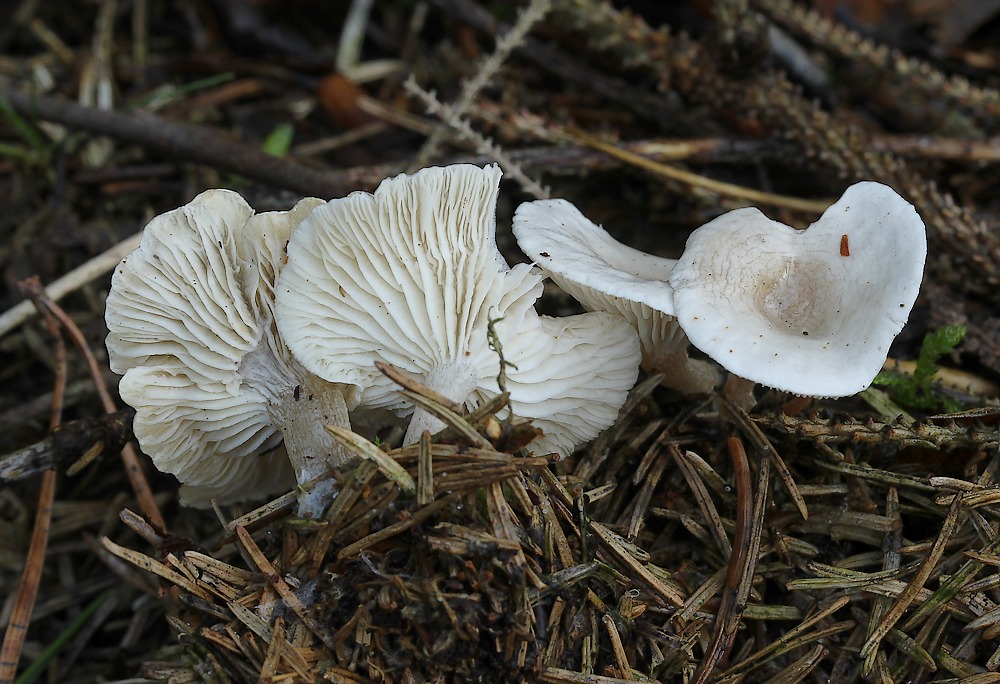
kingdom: Fungi
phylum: Basidiomycota
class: Agaricomycetes
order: Agaricales
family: Tricholomataceae
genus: Leucocybe
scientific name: Leucocybe candicans
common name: kridt-tragthat
